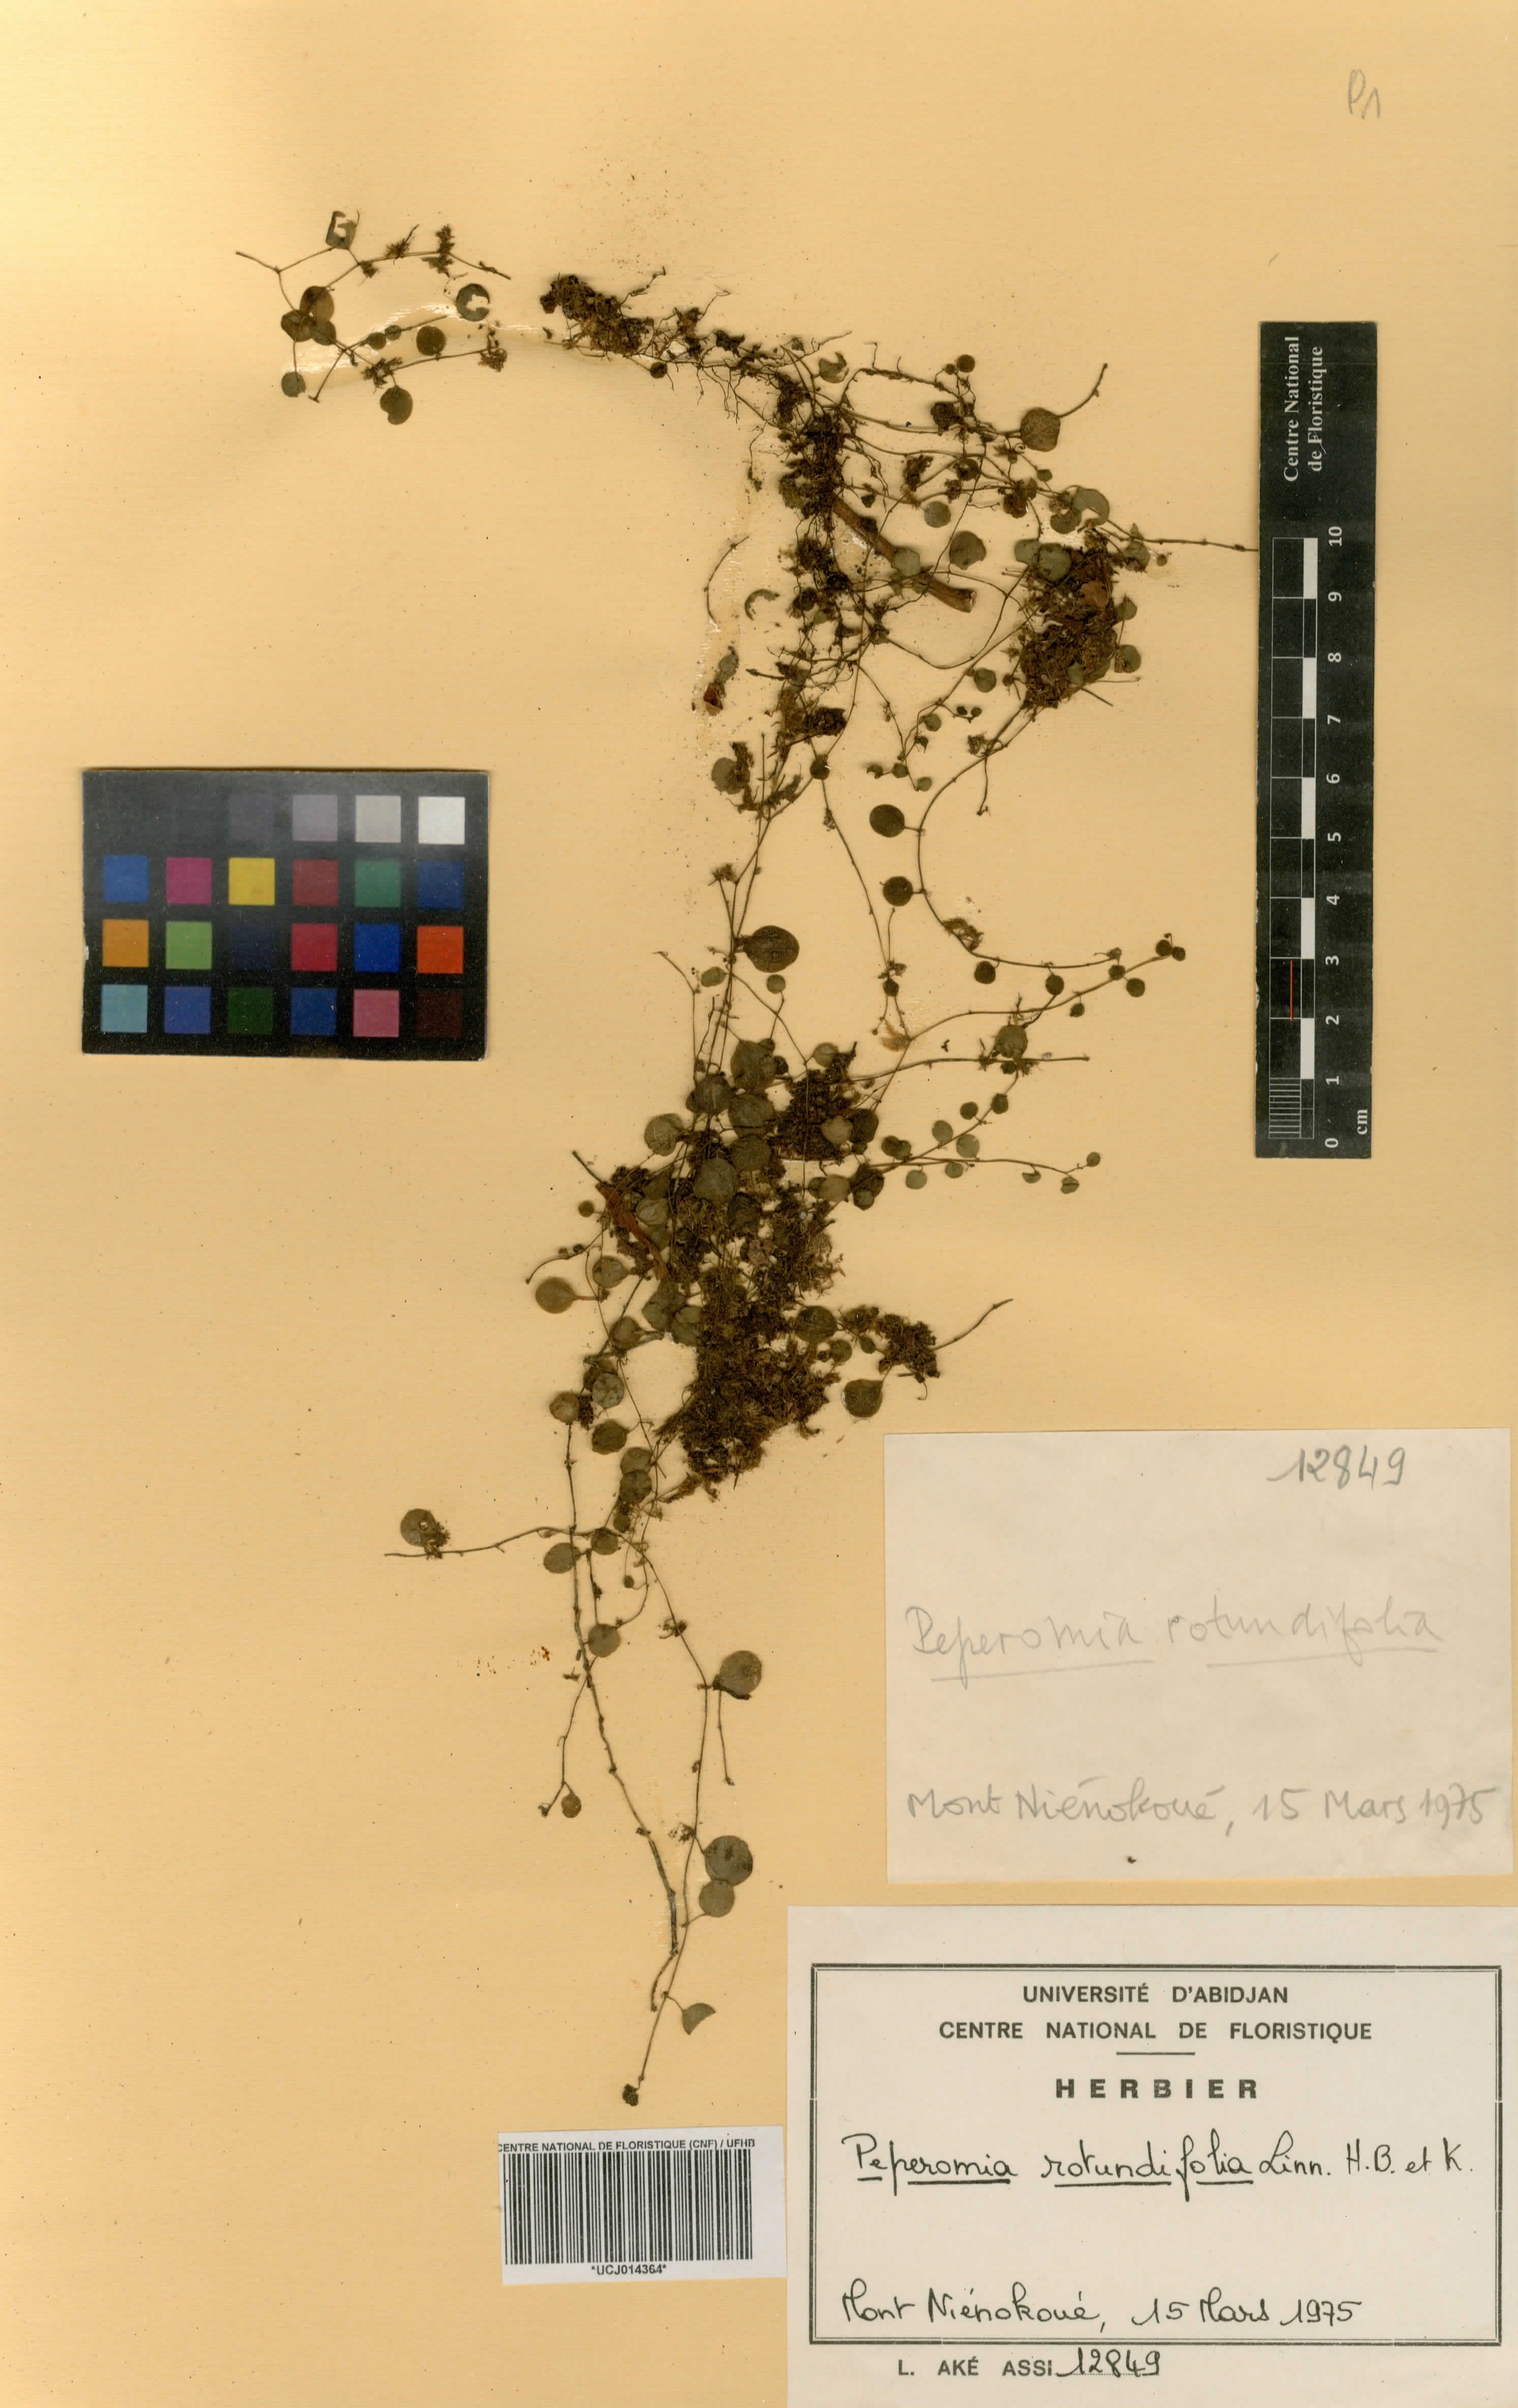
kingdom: Plantae
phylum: Tracheophyta
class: Magnoliopsida
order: Piperales
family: Piperaceae
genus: Peperomia
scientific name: Peperomia rotundifolia
